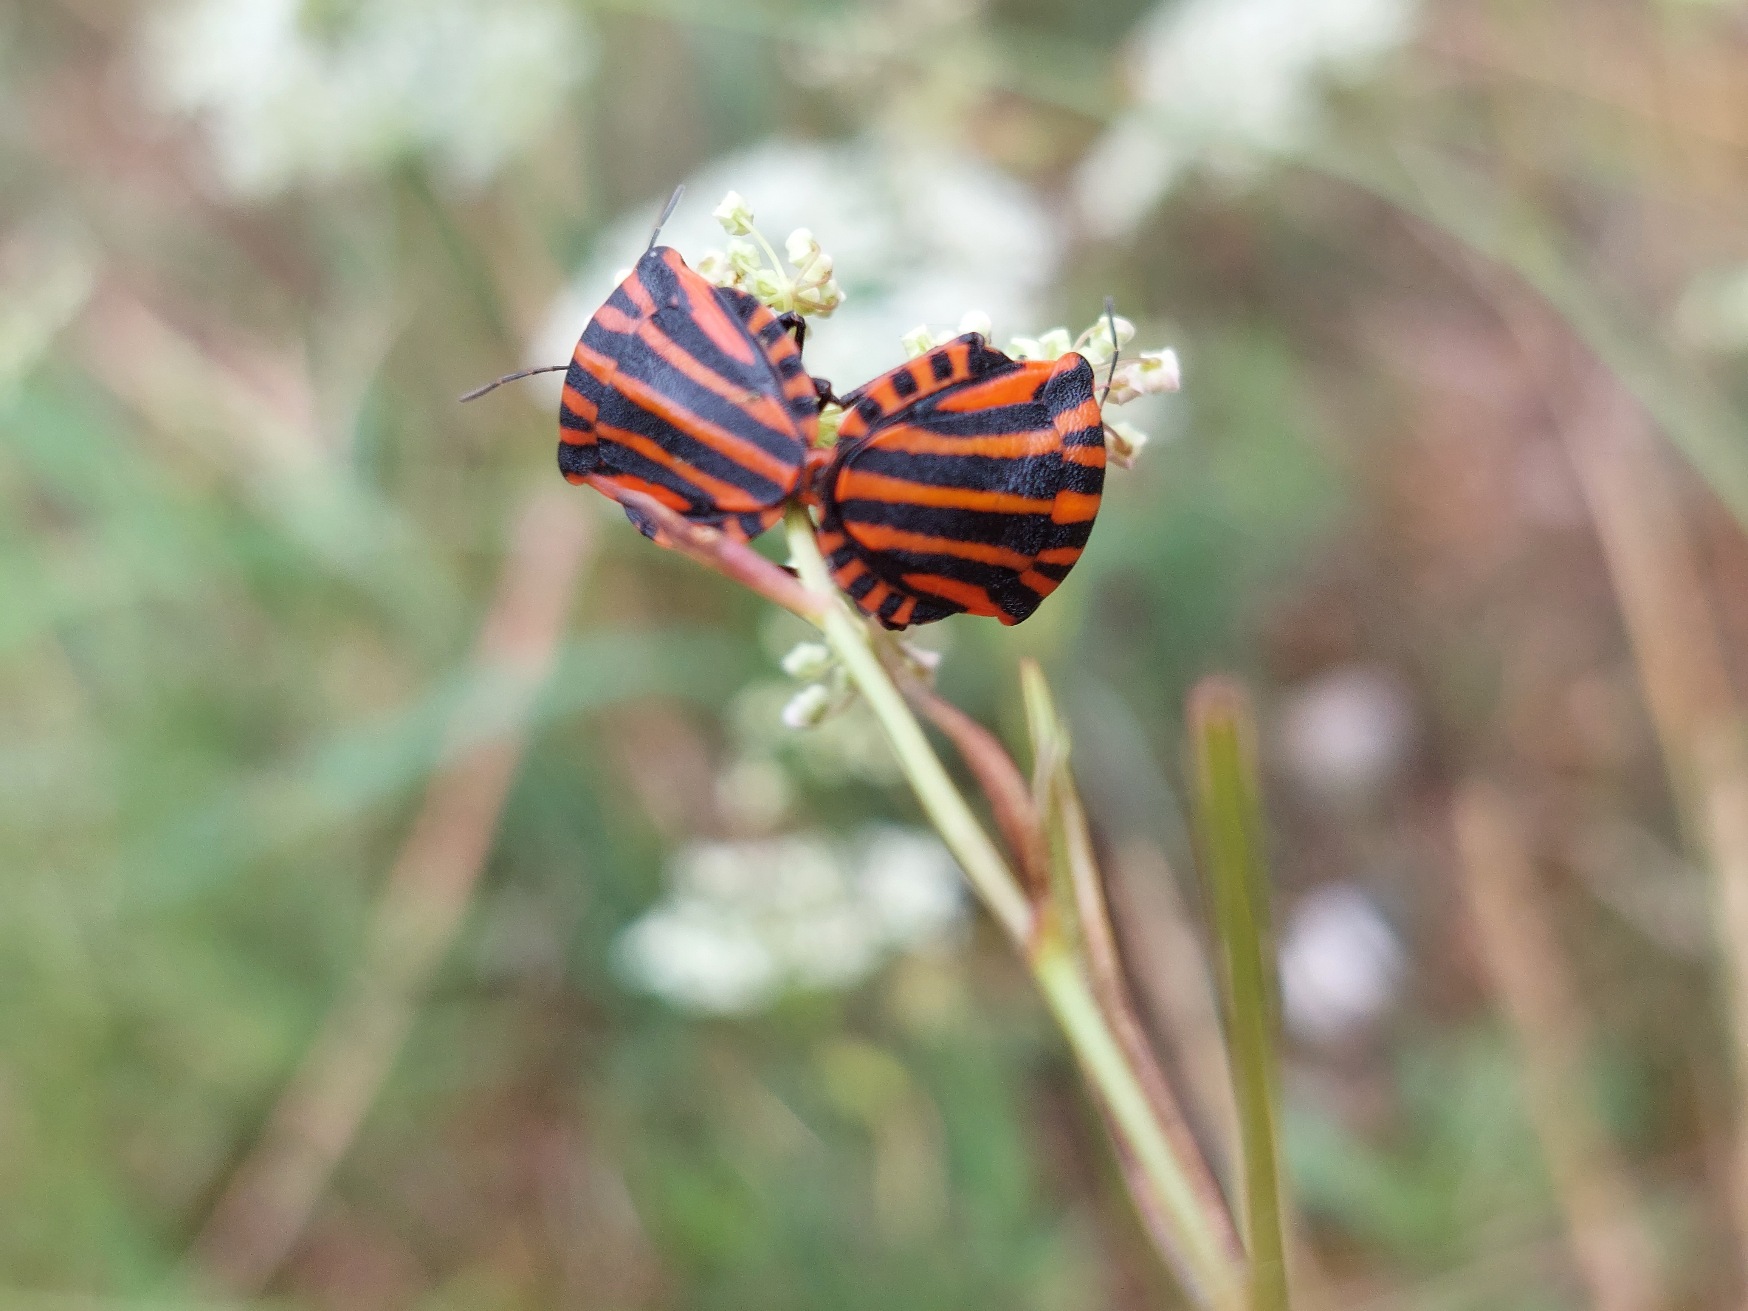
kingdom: Animalia
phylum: Arthropoda
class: Insecta
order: Hemiptera
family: Pentatomidae
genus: Graphosoma
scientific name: Graphosoma italicum
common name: Stribetæge
